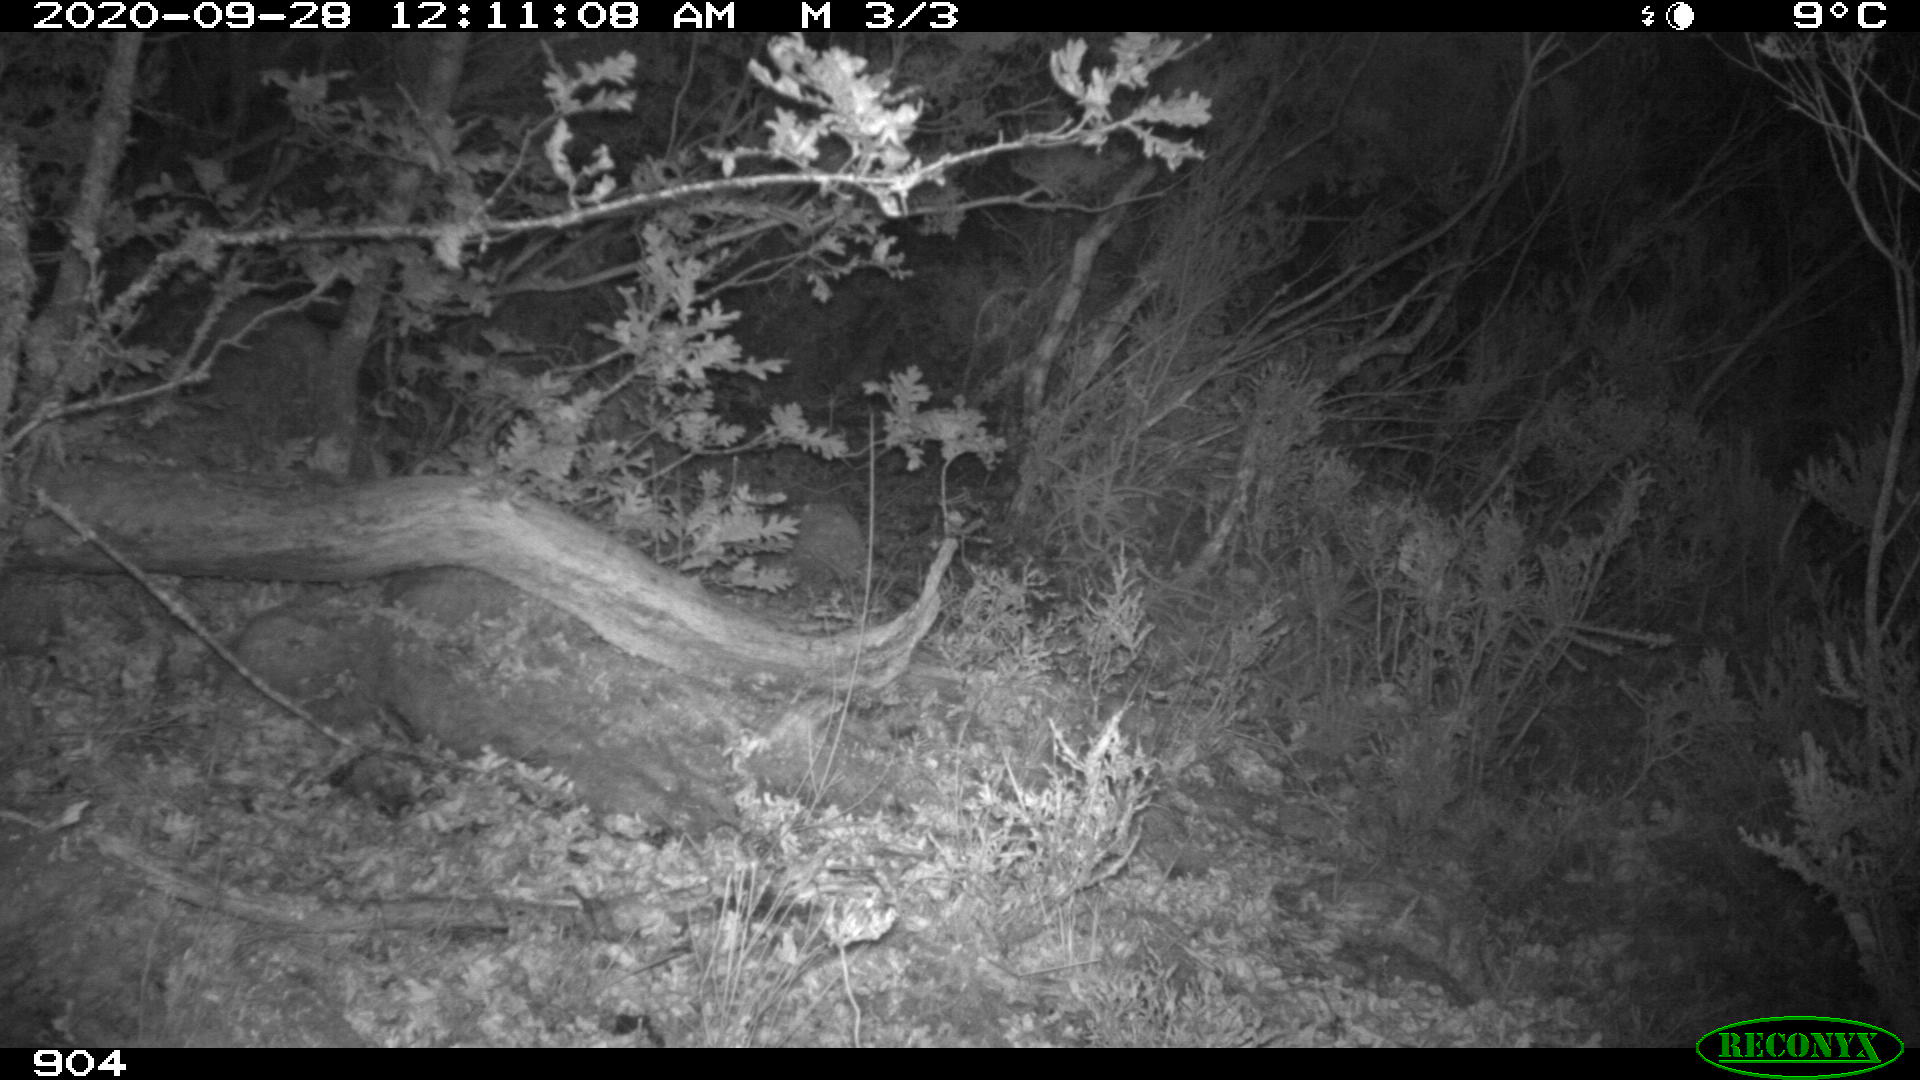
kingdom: Animalia
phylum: Chordata
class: Mammalia
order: Artiodactyla
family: Cervidae
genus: Capreolus
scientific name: Capreolus capreolus
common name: Western roe deer
